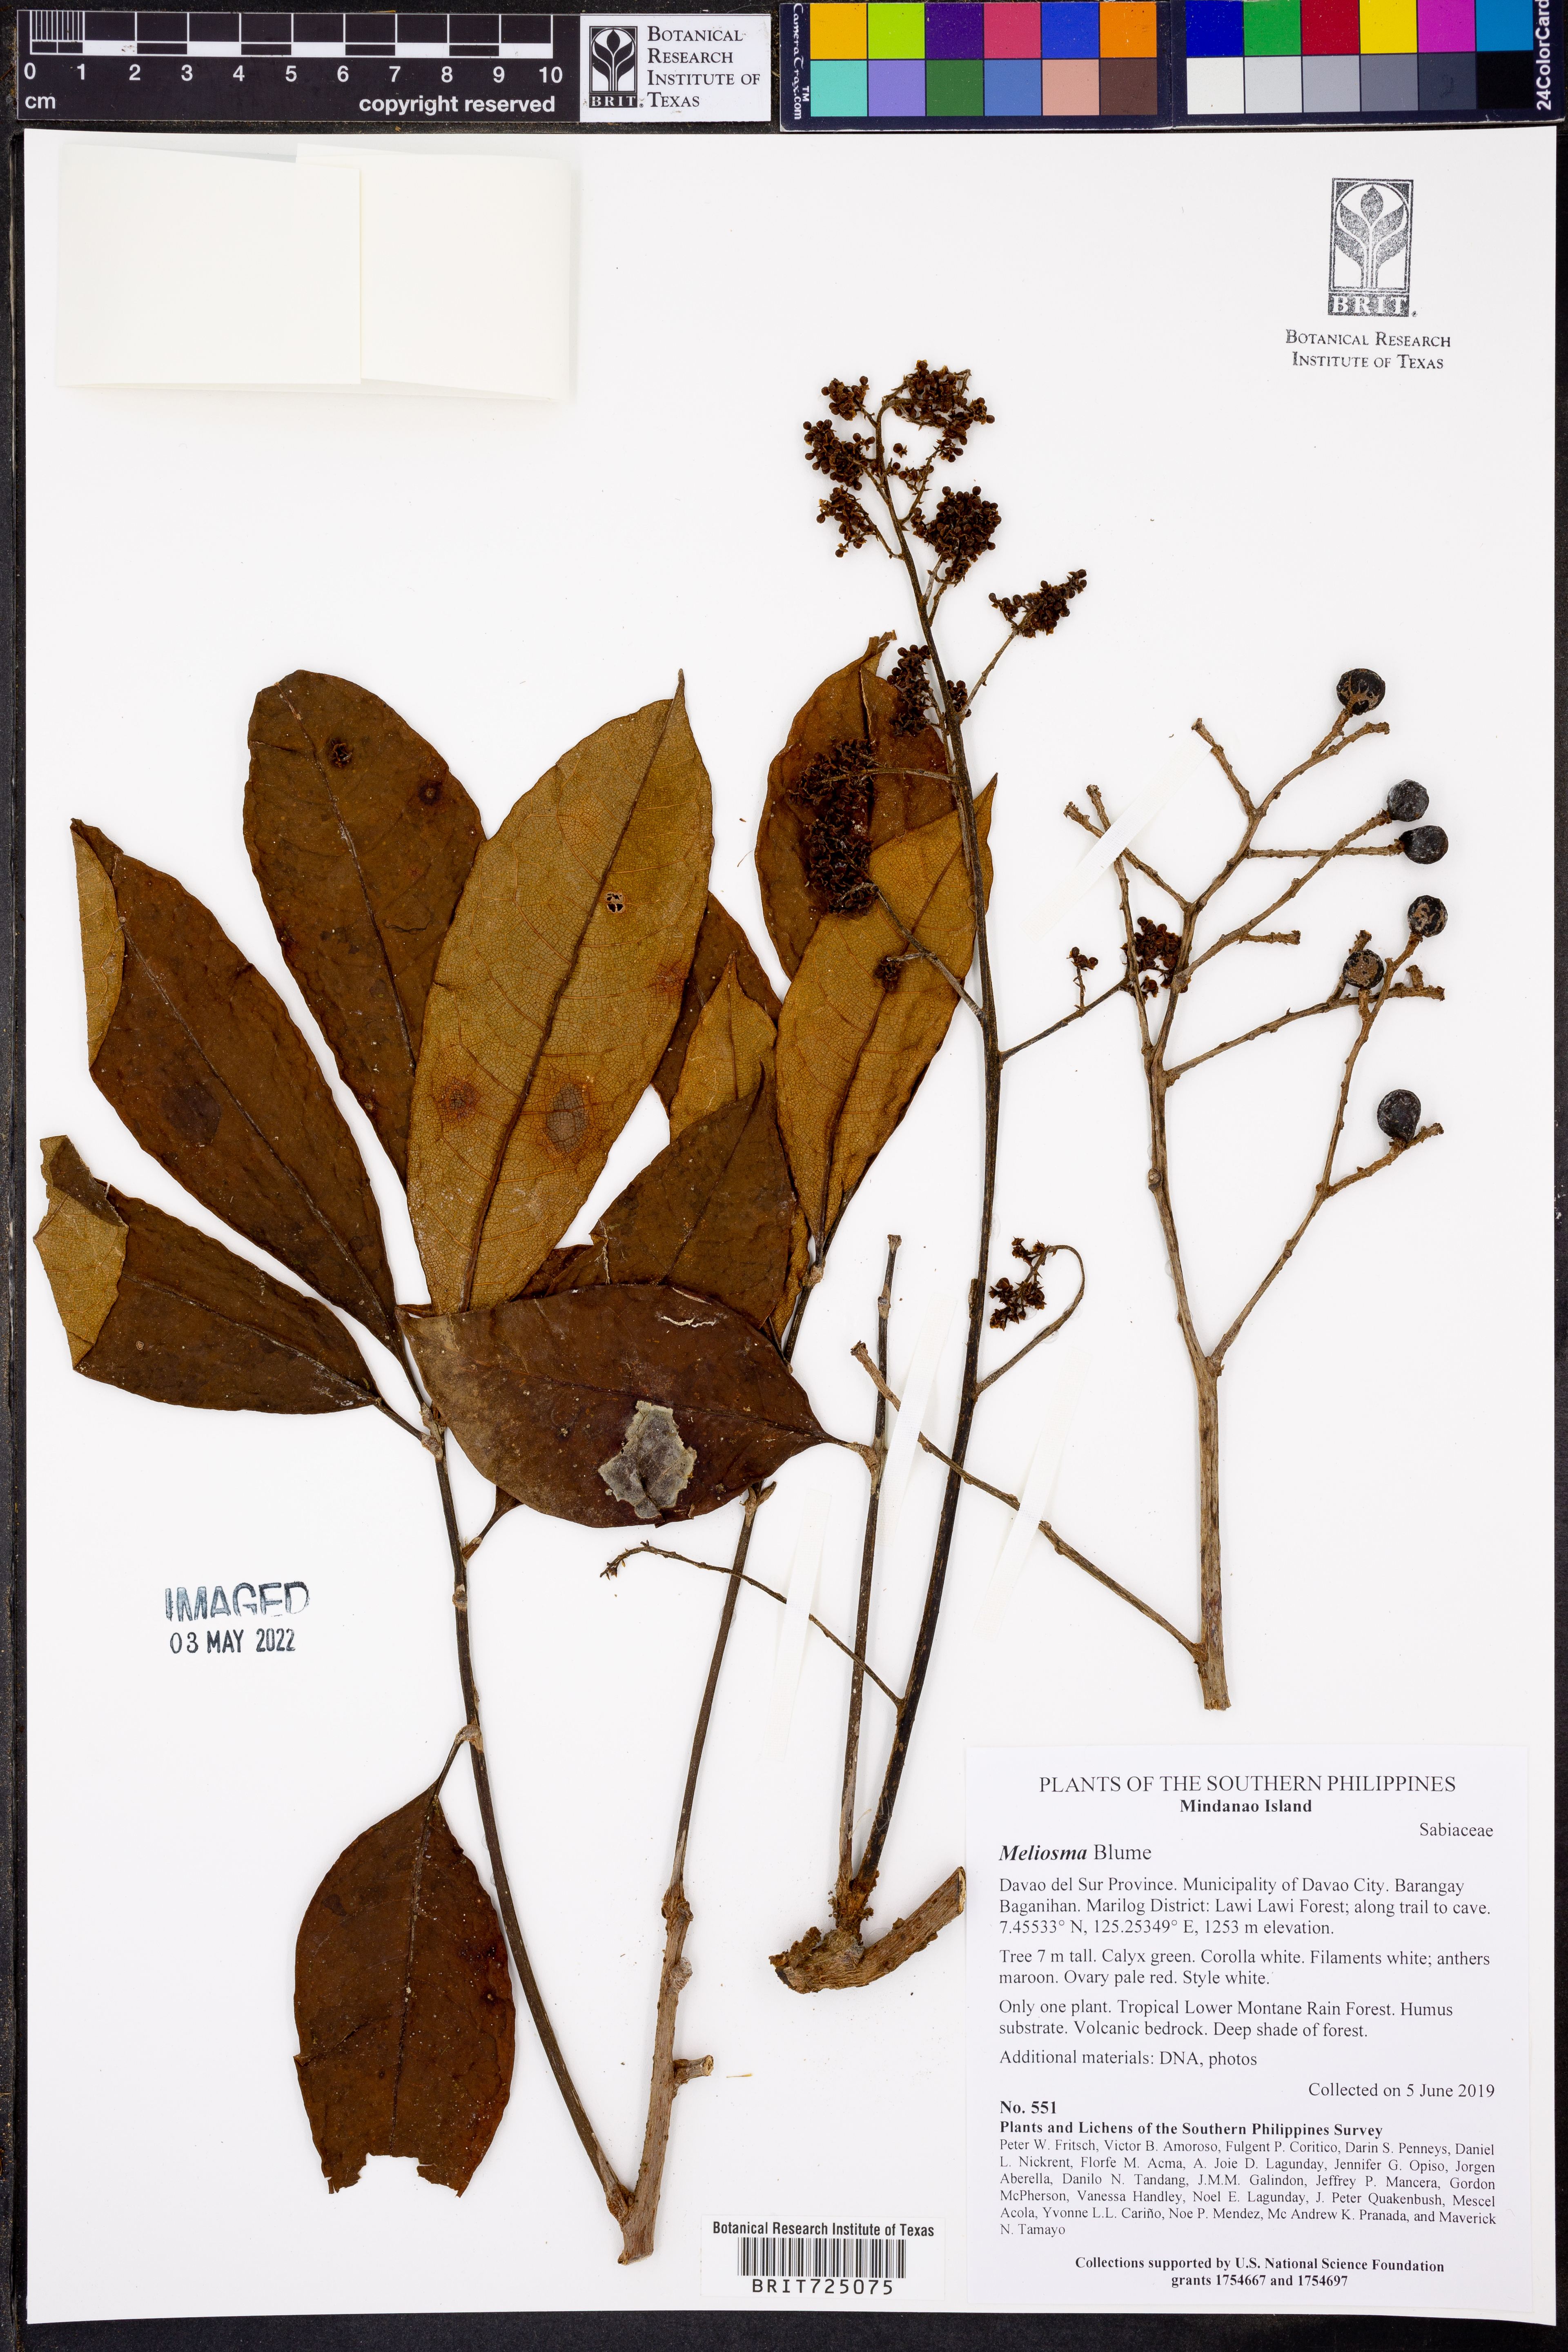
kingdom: Plantae
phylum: Tracheophyta
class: Magnoliopsida
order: Proteales
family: Sabiaceae
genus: Meliosma
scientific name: Meliosma
